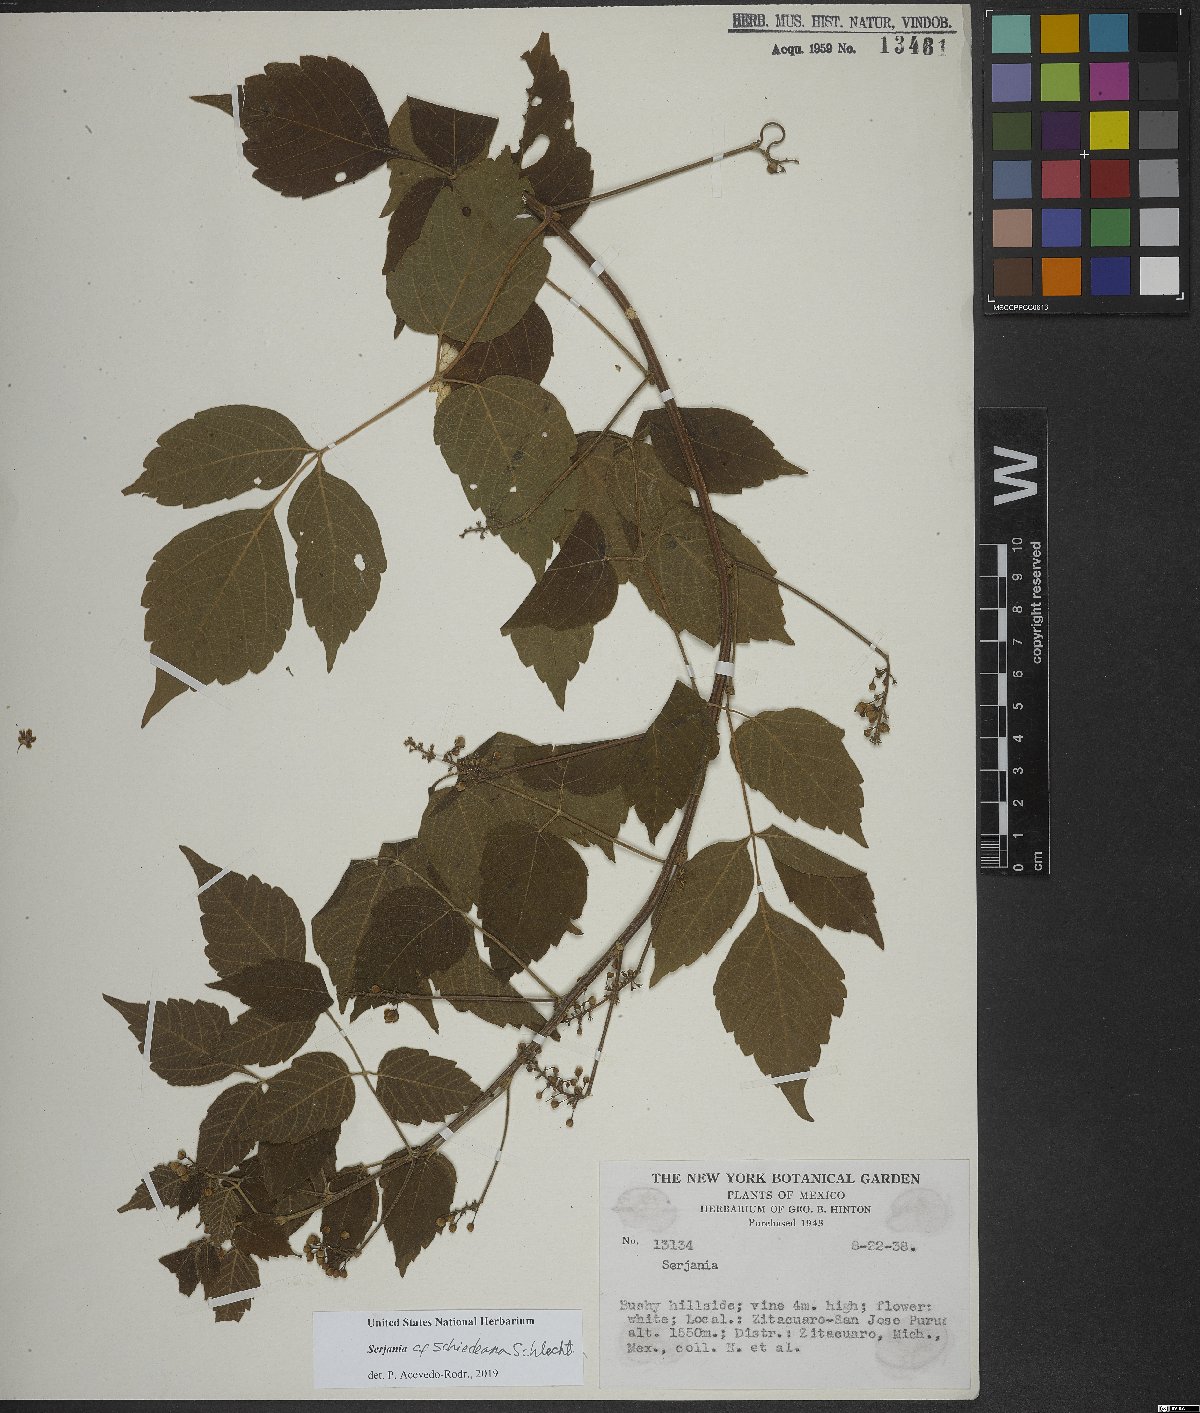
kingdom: Plantae
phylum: Tracheophyta
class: Magnoliopsida
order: Sapindales
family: Sapindaceae
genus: Serjania
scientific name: Serjania schiedeana
